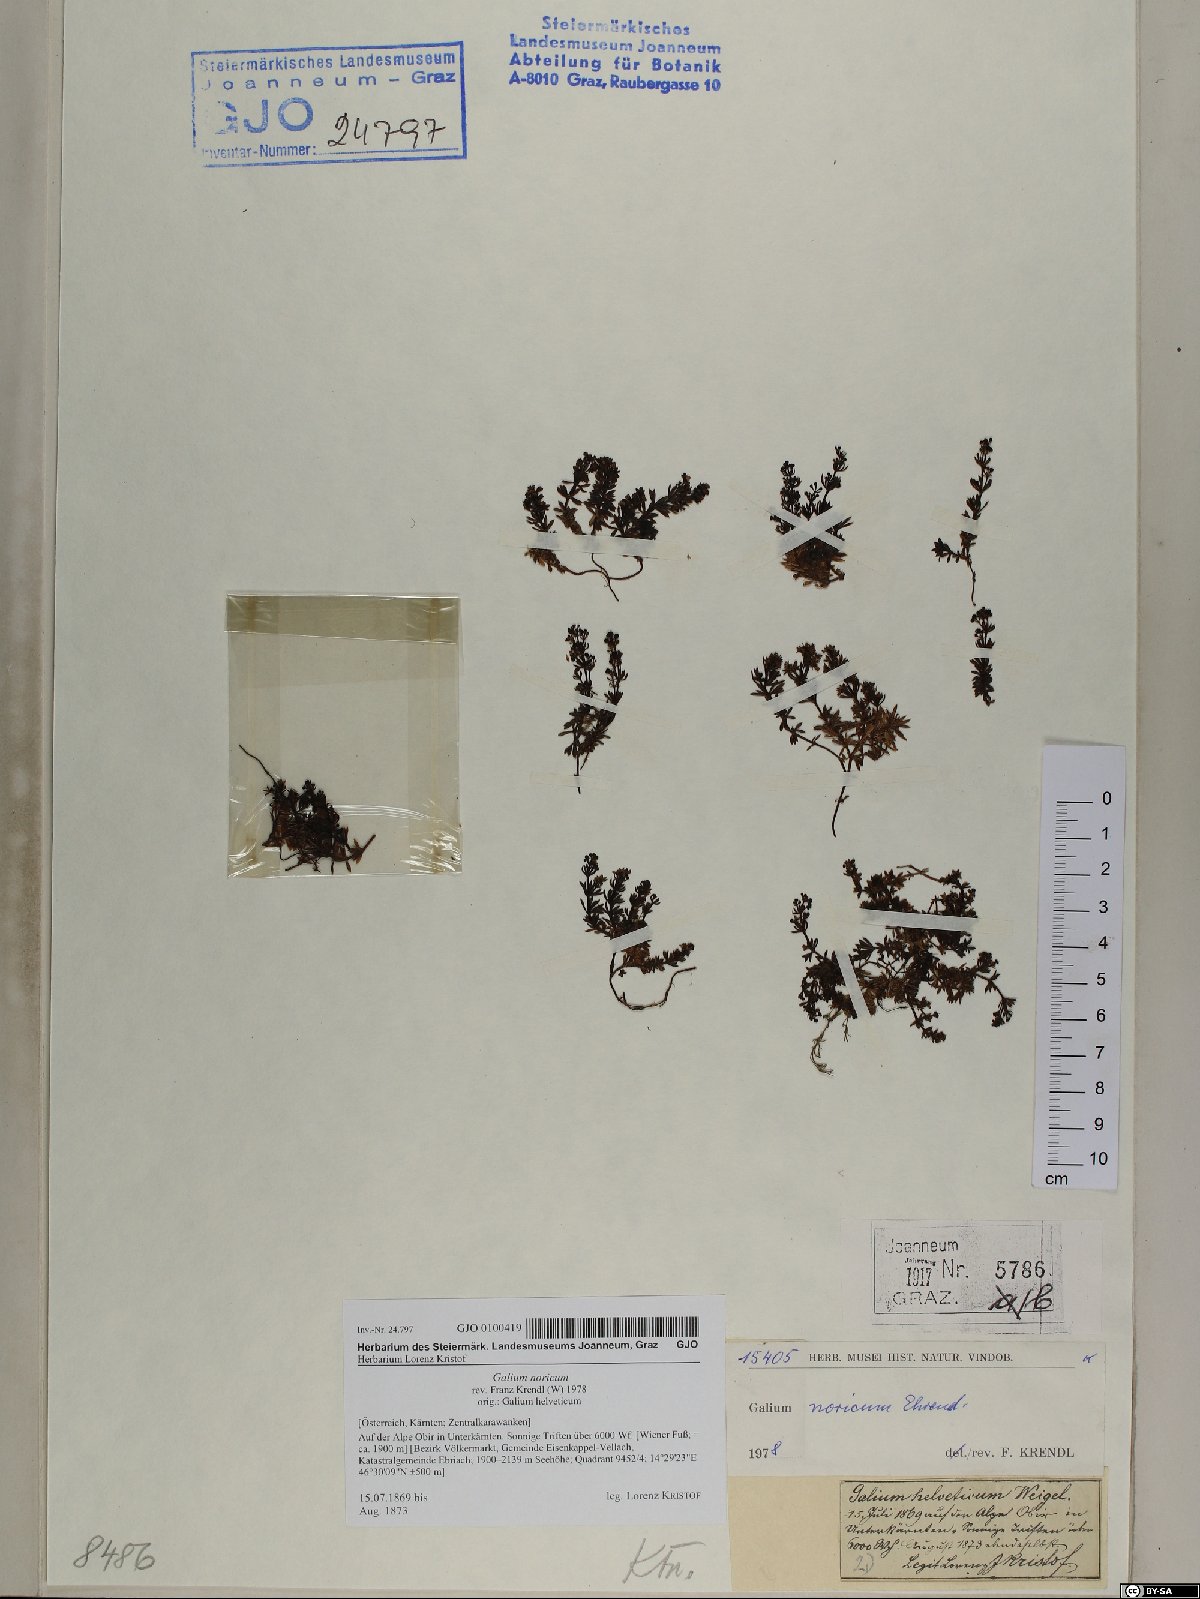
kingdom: Plantae
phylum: Tracheophyta
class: Magnoliopsida
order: Gentianales
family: Rubiaceae
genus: Galium
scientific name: Galium noricum
